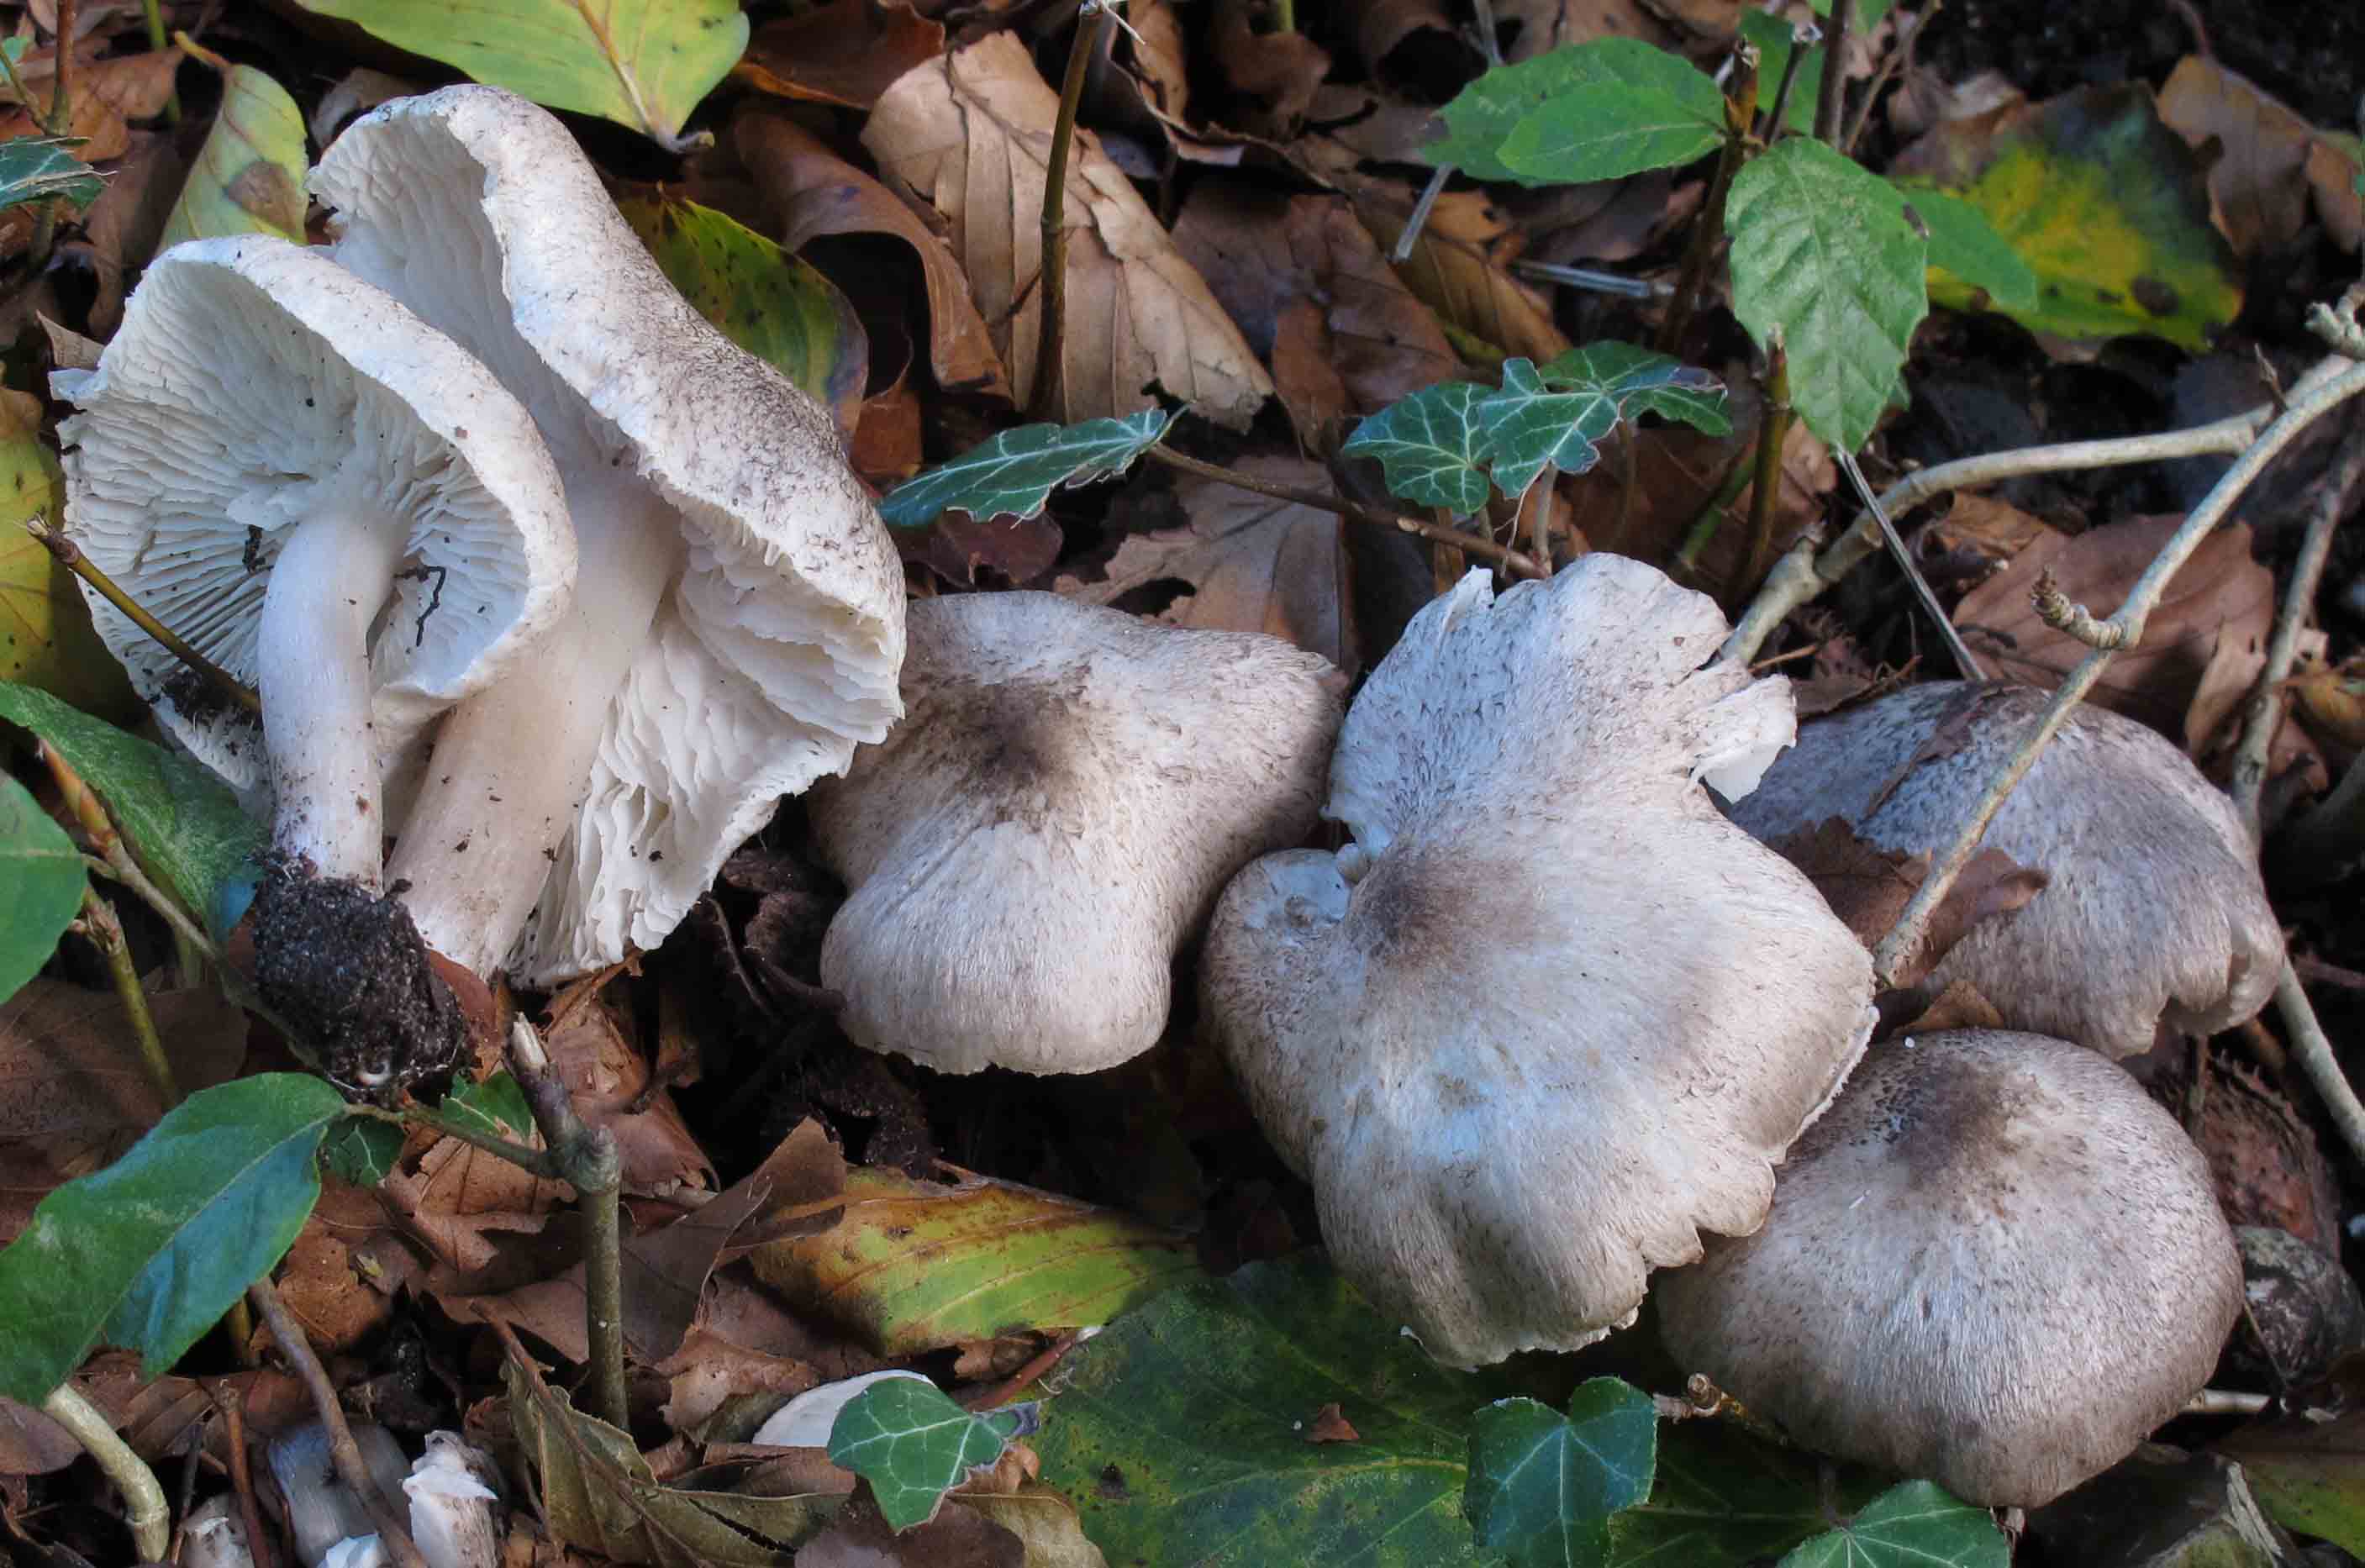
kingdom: Fungi
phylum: Basidiomycota
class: Agaricomycetes
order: Agaricales
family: Tricholomataceae
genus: Tricholoma
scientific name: Tricholoma scalpturatum
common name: gulplettet ridderhat
